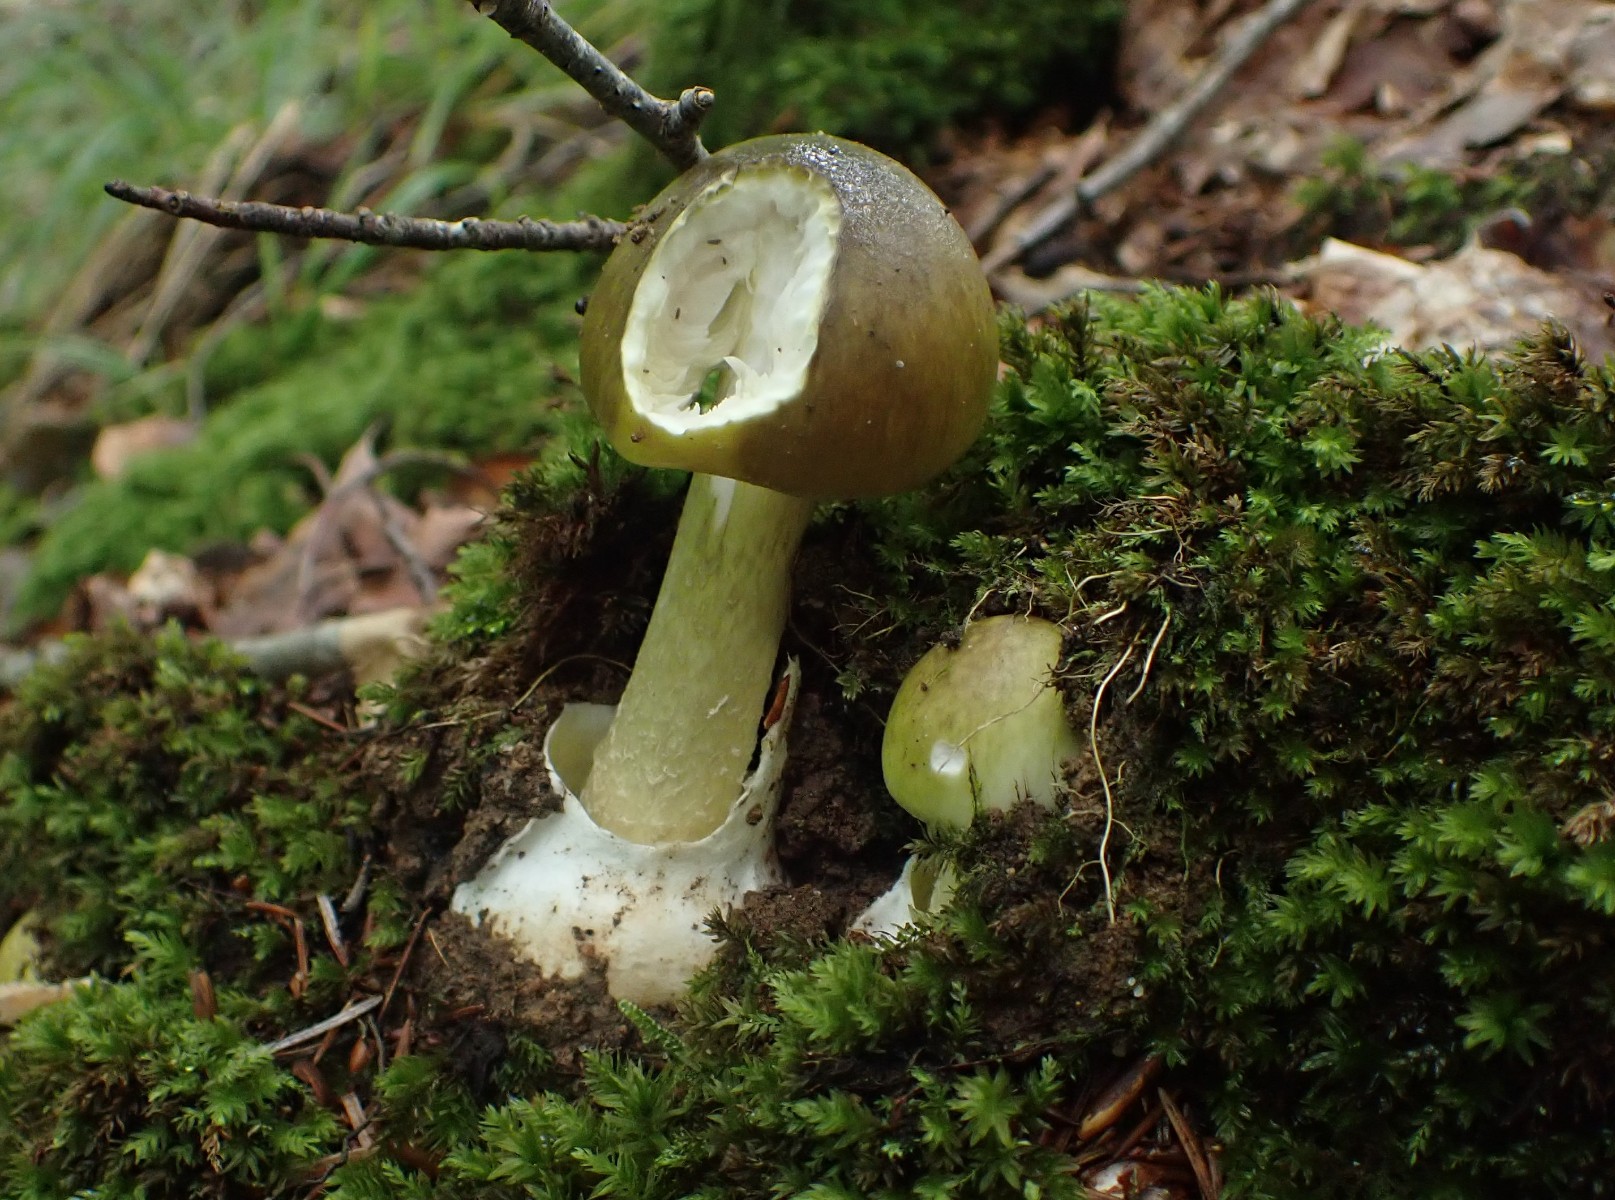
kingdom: Fungi
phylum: Basidiomycota
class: Agaricomycetes
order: Agaricales
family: Amanitaceae
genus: Amanita
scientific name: Amanita phalloides
